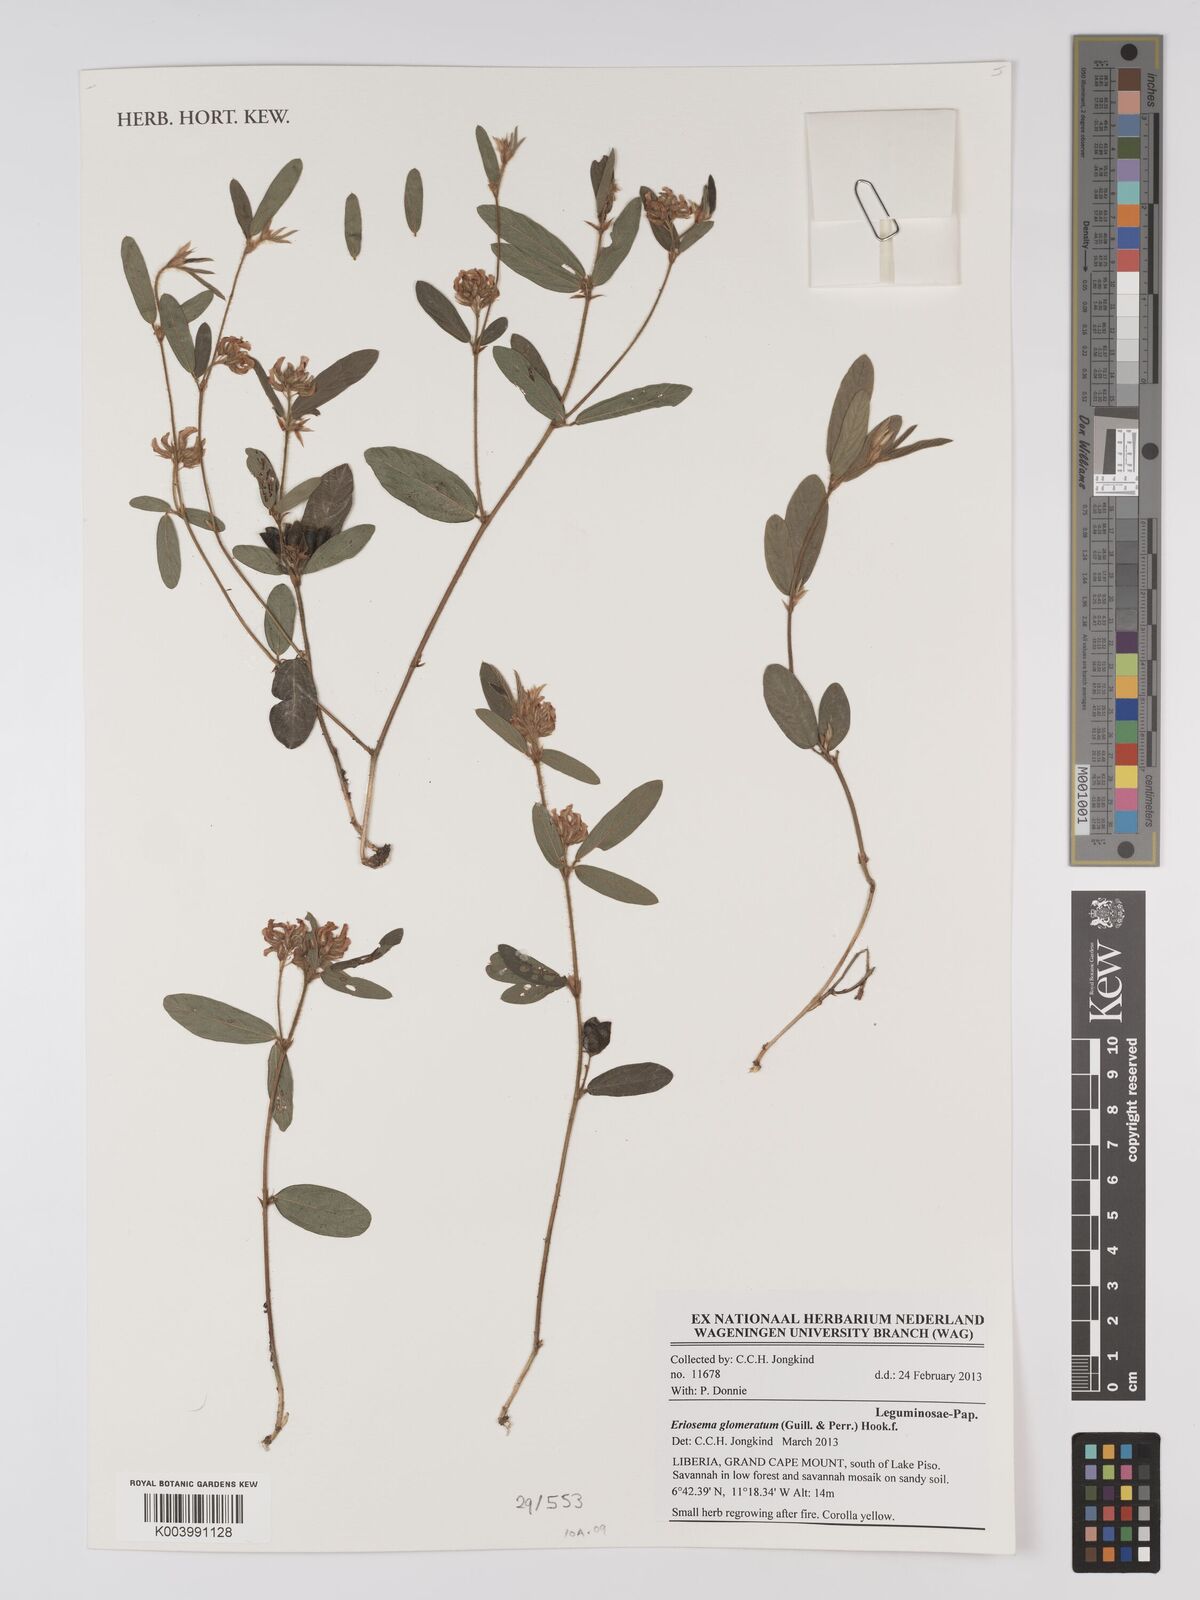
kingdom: Plantae
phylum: Tracheophyta
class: Magnoliopsida
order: Fabales
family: Fabaceae
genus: Eriosema
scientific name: Eriosema glomeratum
